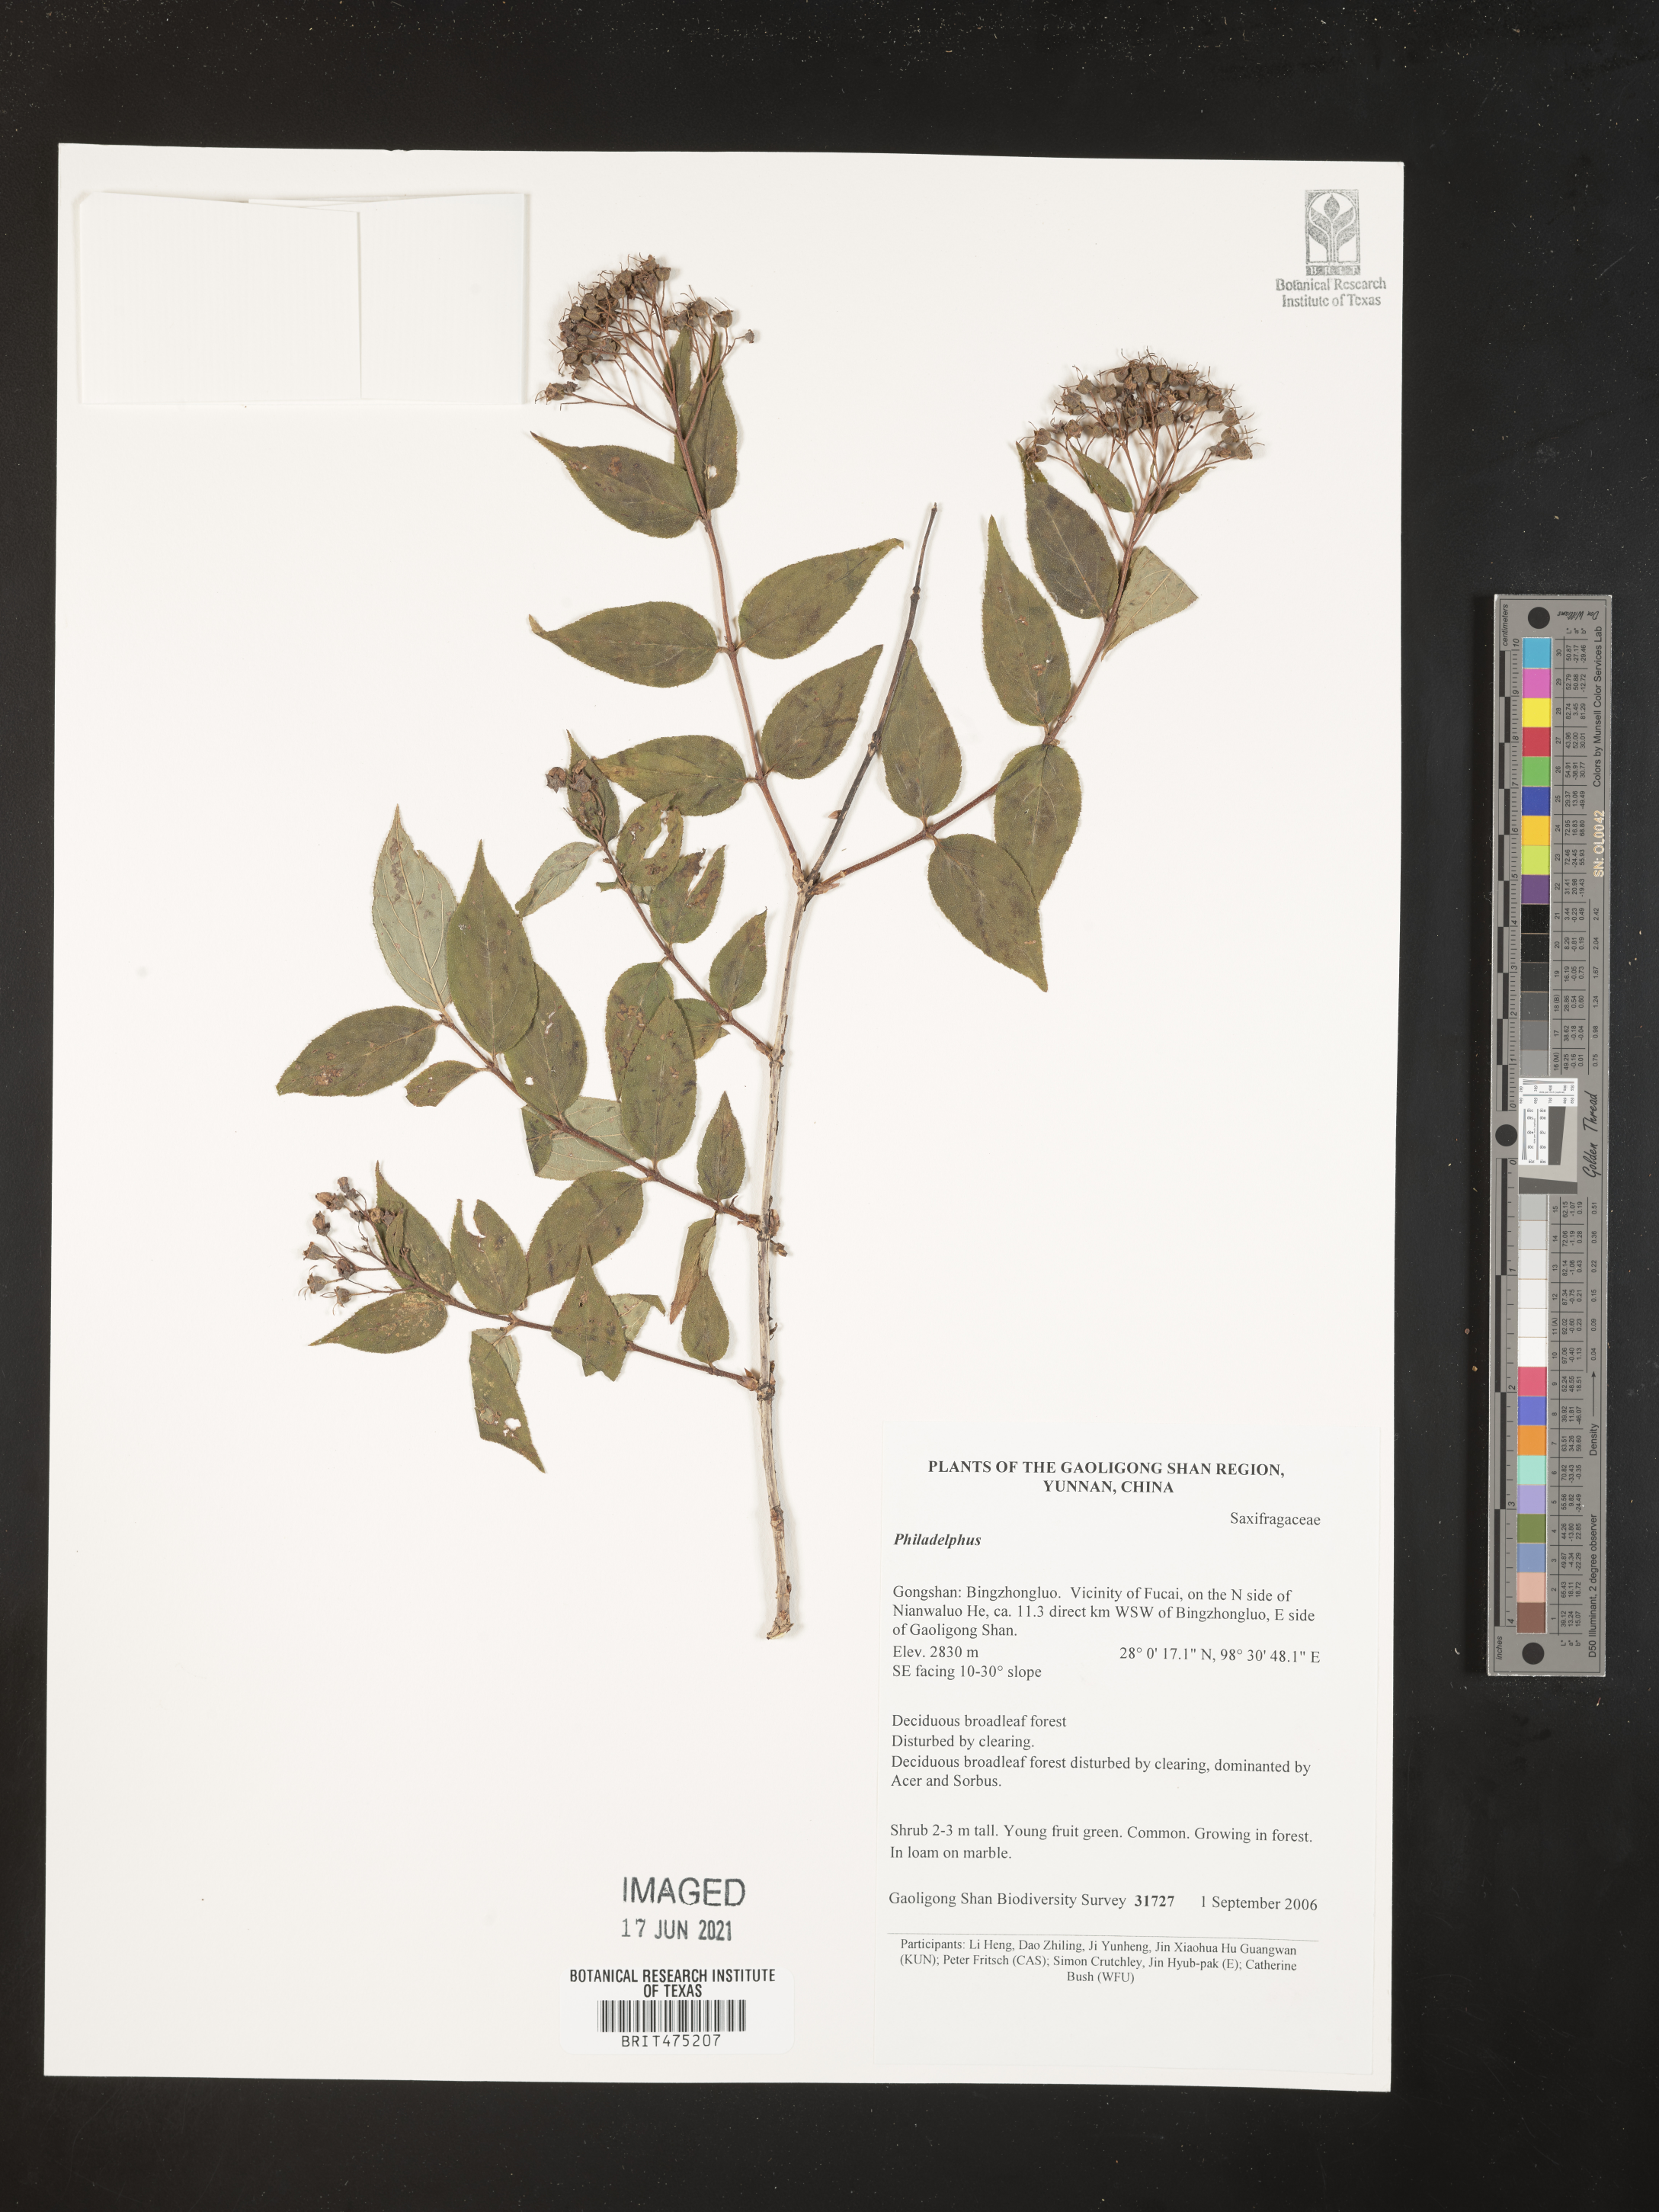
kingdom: Plantae
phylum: Tracheophyta
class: Magnoliopsida
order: Cornales
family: Hydrangeaceae
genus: Philadelphus
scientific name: Philadelphus
